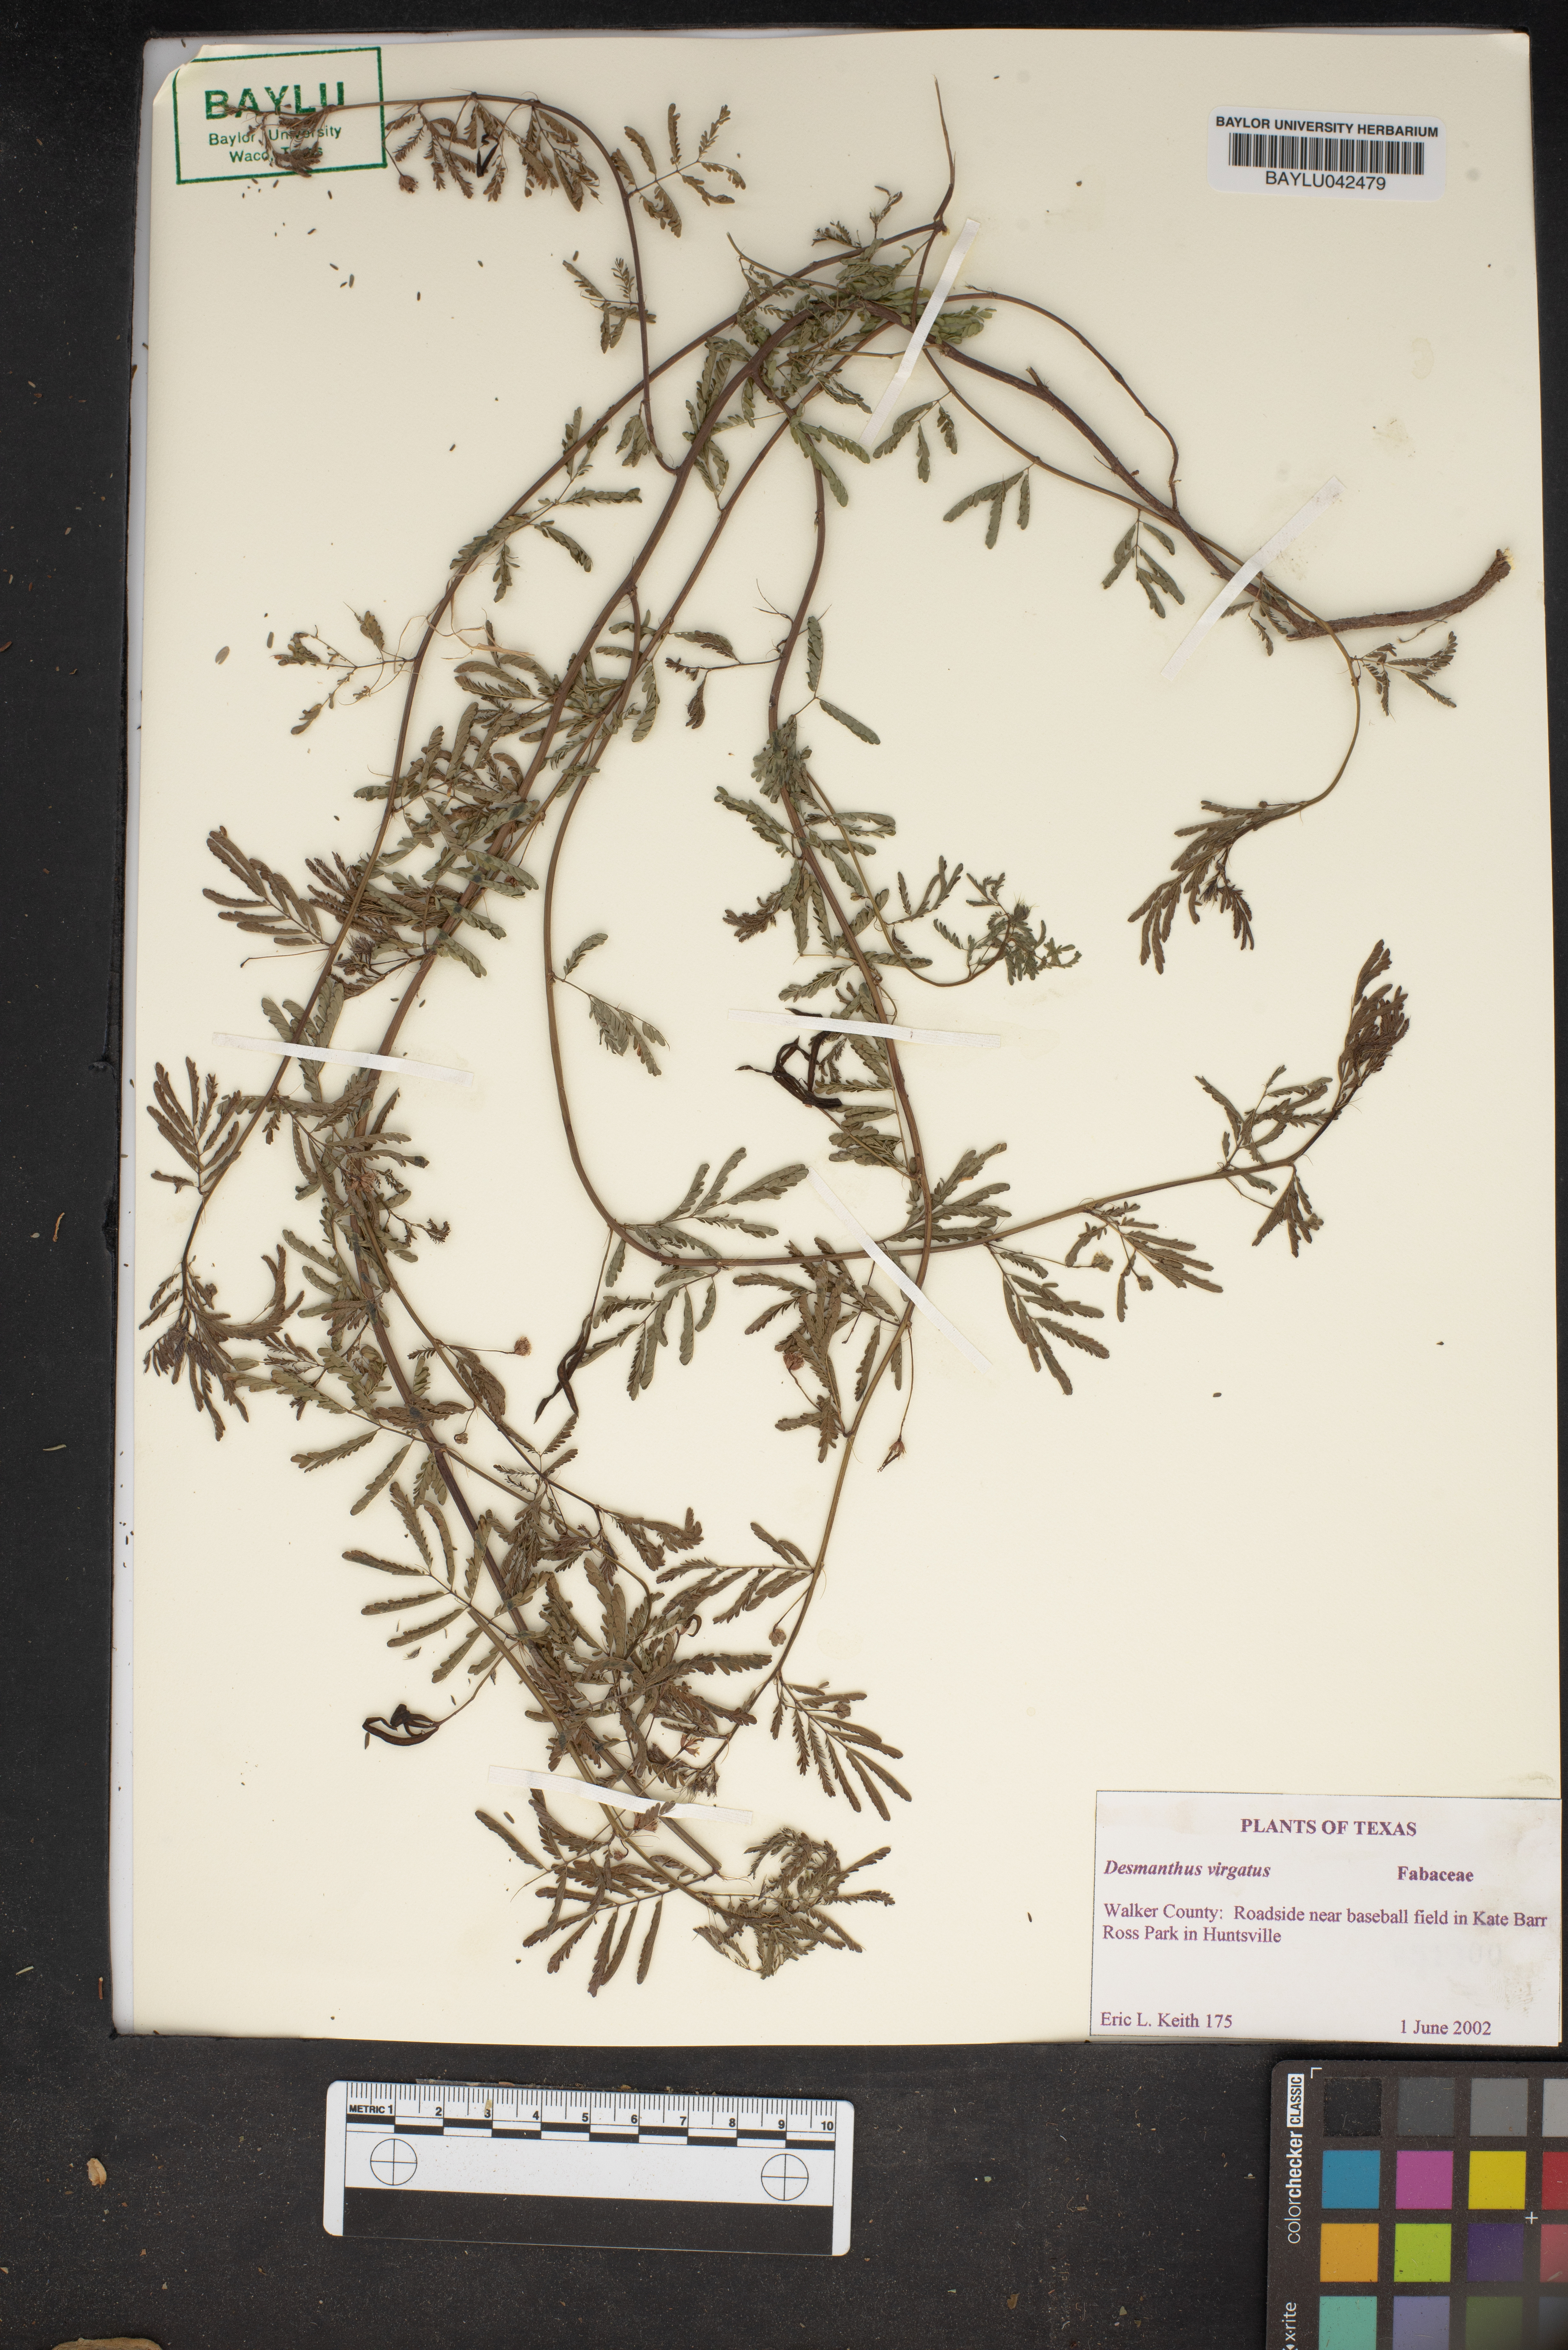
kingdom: Plantae
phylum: Tracheophyta
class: Magnoliopsida
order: Fabales
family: Fabaceae
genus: Desmanthus
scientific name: Desmanthus virgatus
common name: Wild tantan
